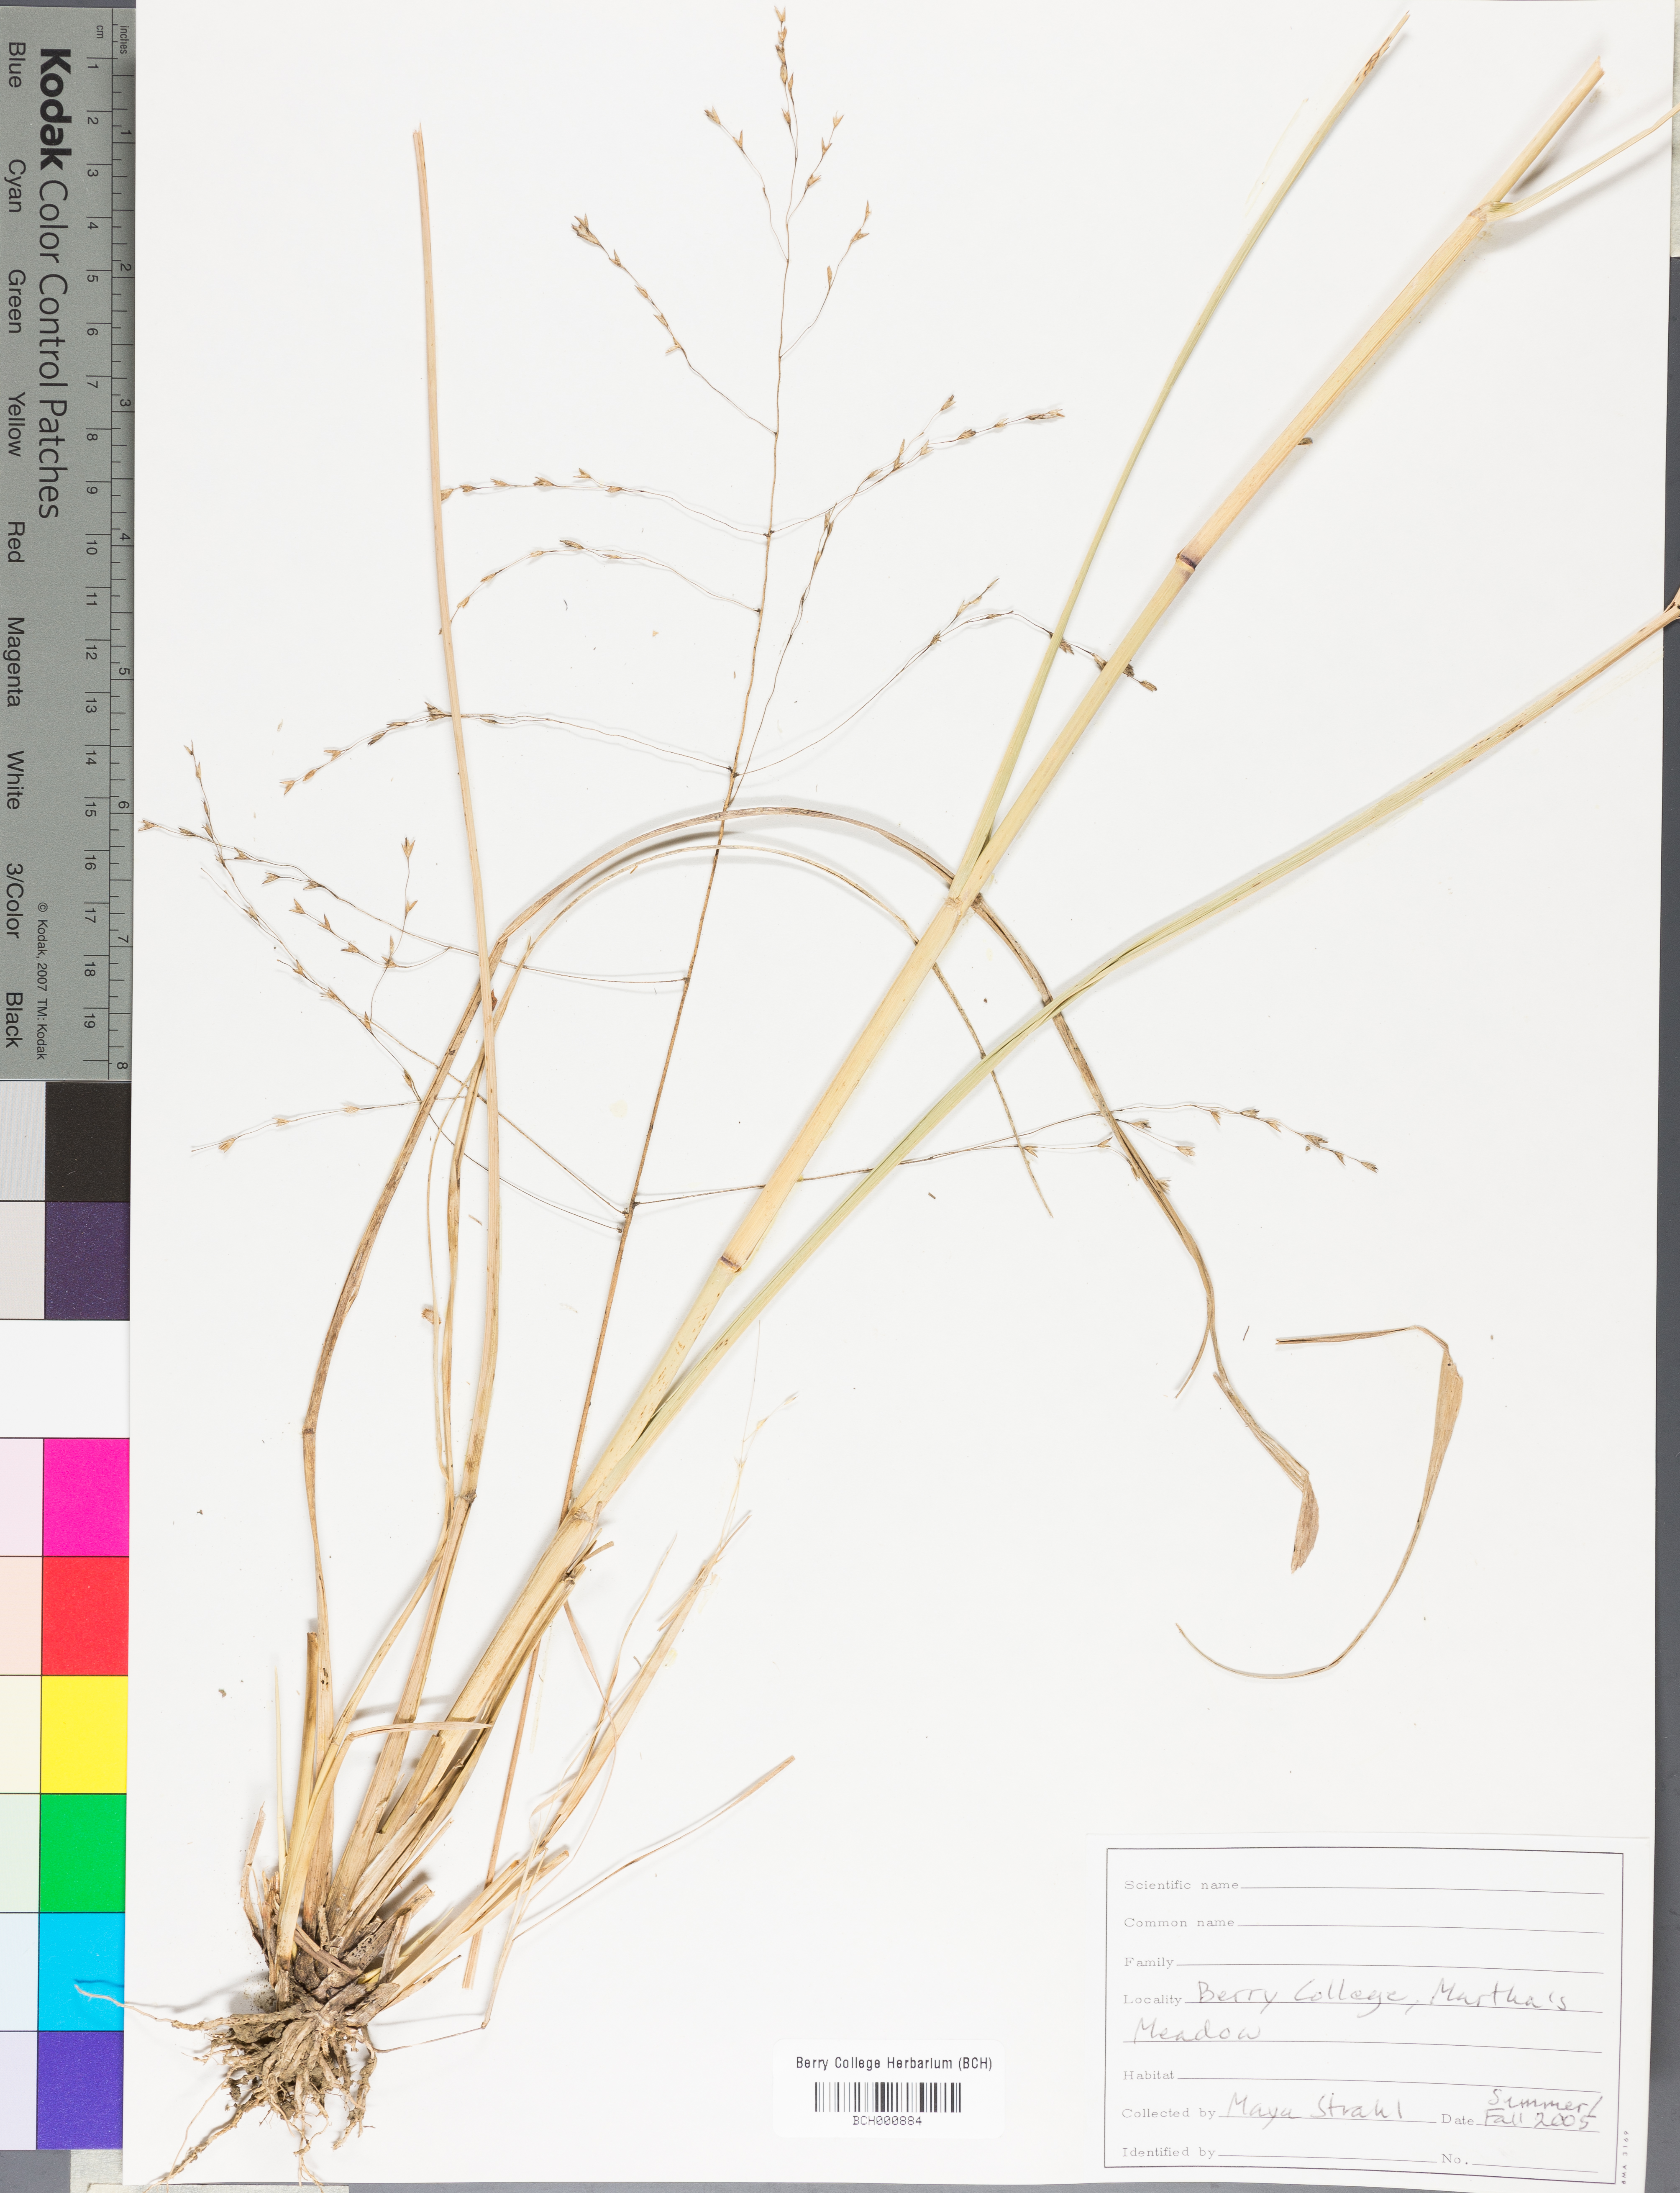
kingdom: Plantae
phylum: Tracheophyta
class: Magnoliopsida
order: Lamiales
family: Acanthaceae
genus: Adhatoda
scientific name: Adhatoda
